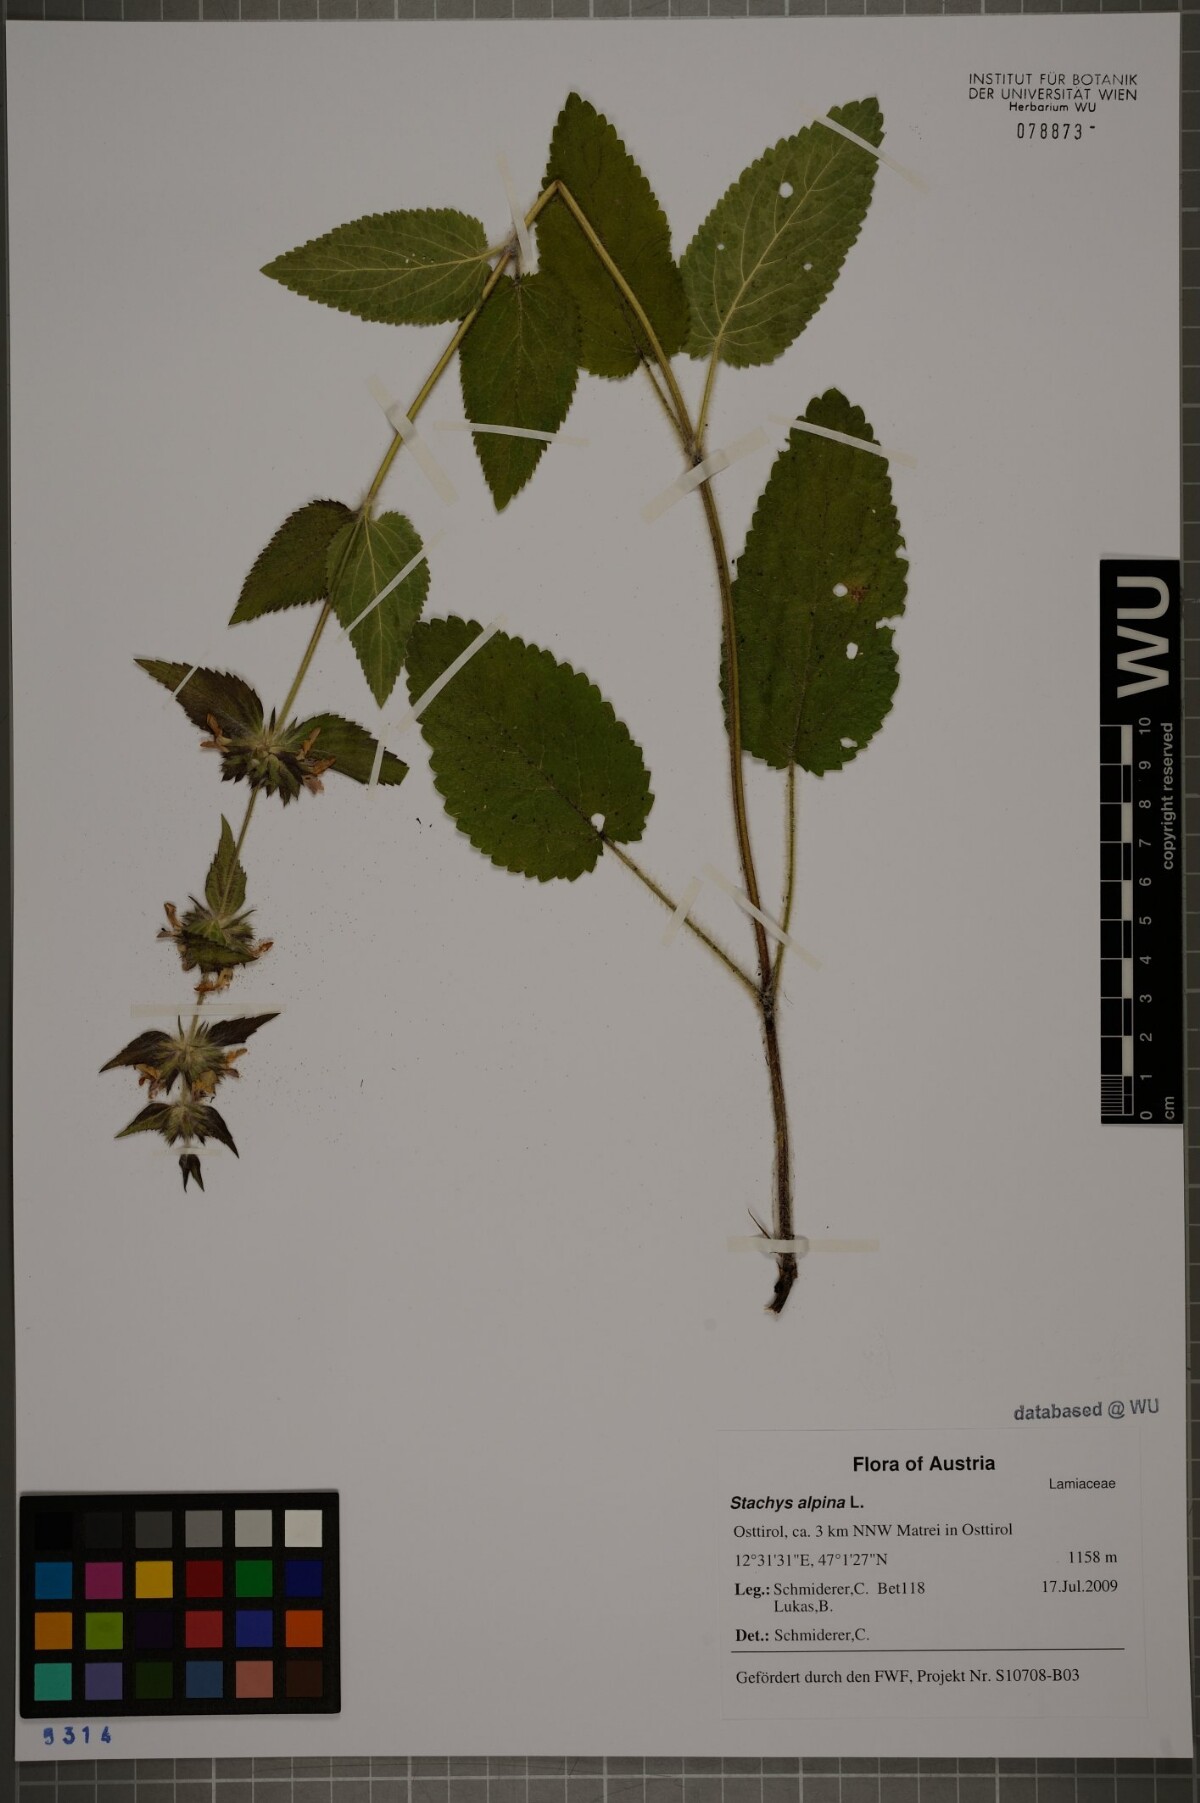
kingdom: Plantae
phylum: Tracheophyta
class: Magnoliopsida
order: Lamiales
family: Lamiaceae
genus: Stachys
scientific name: Stachys alpina
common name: Limestone woundwort
